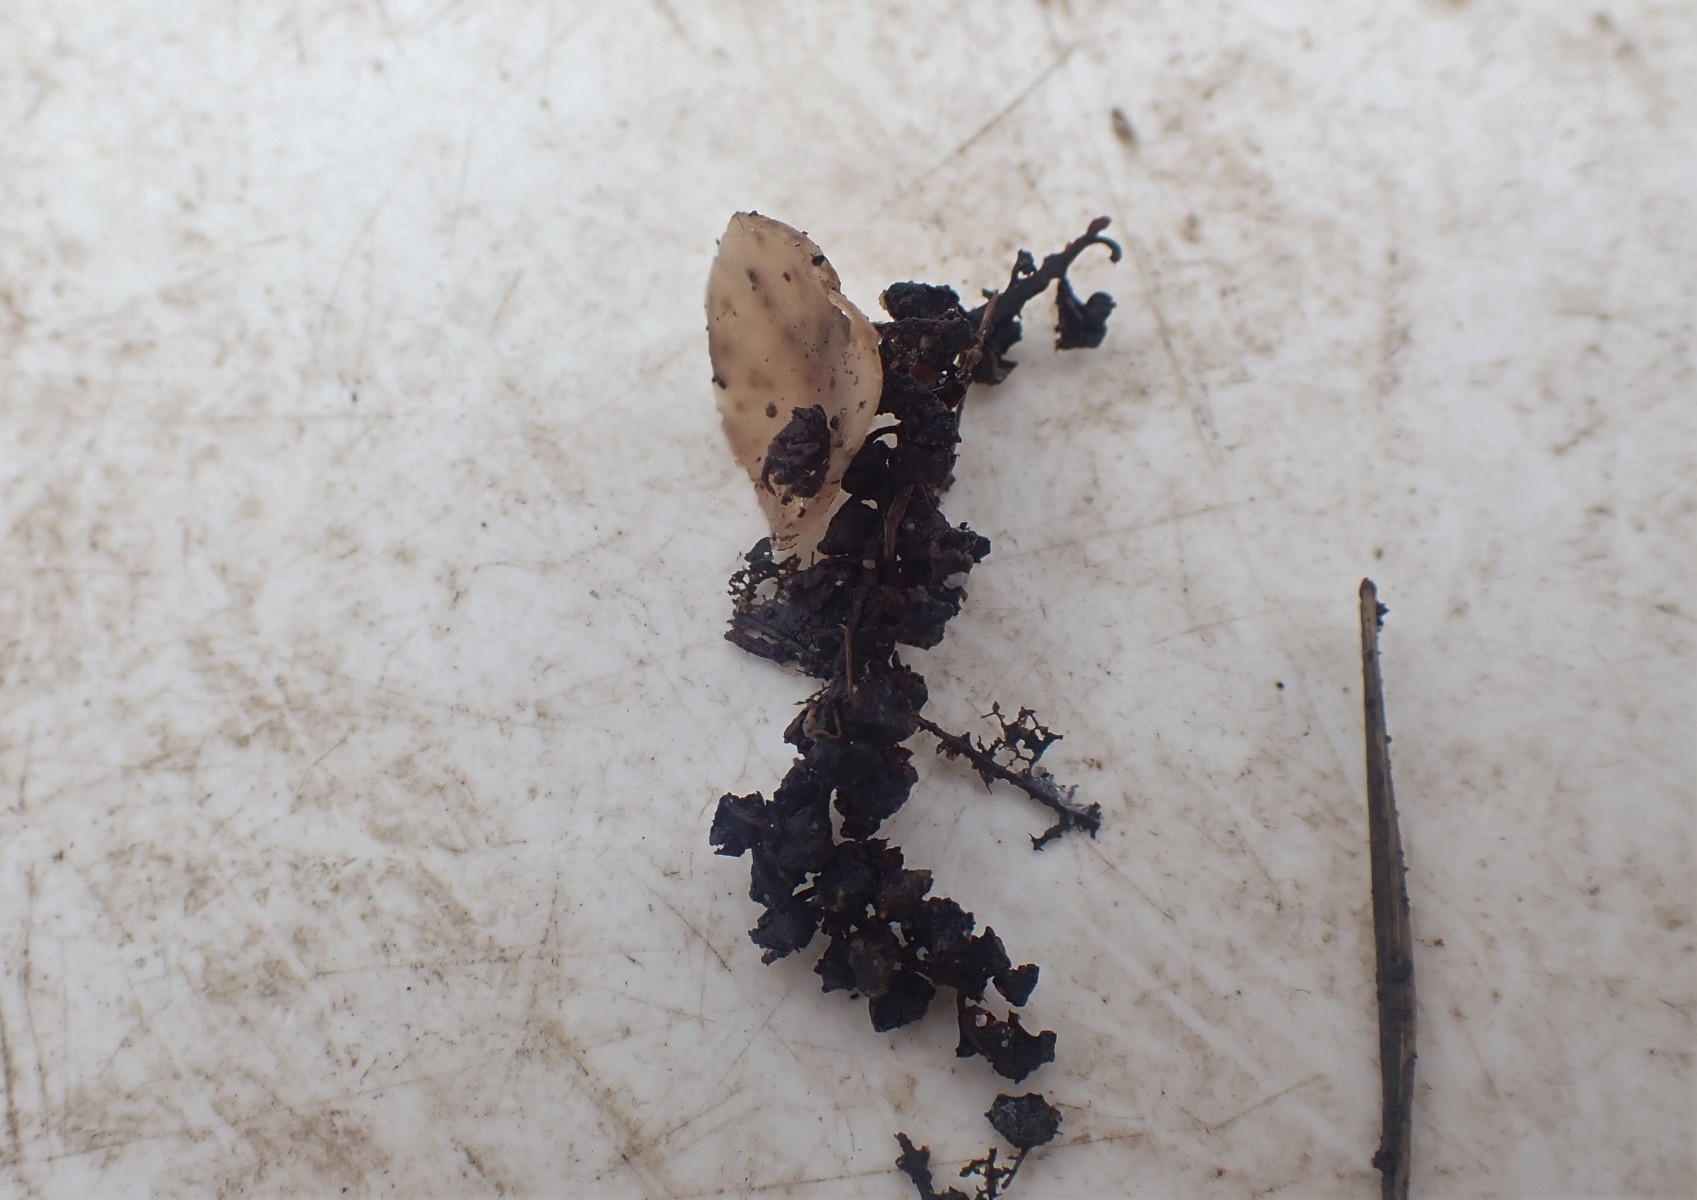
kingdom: Fungi
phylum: Ascomycota
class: Leotiomycetes
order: Helotiales
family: Sclerotiniaceae
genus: Ciboria
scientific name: Ciboria amentacea
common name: ellerakle-knoldskive
